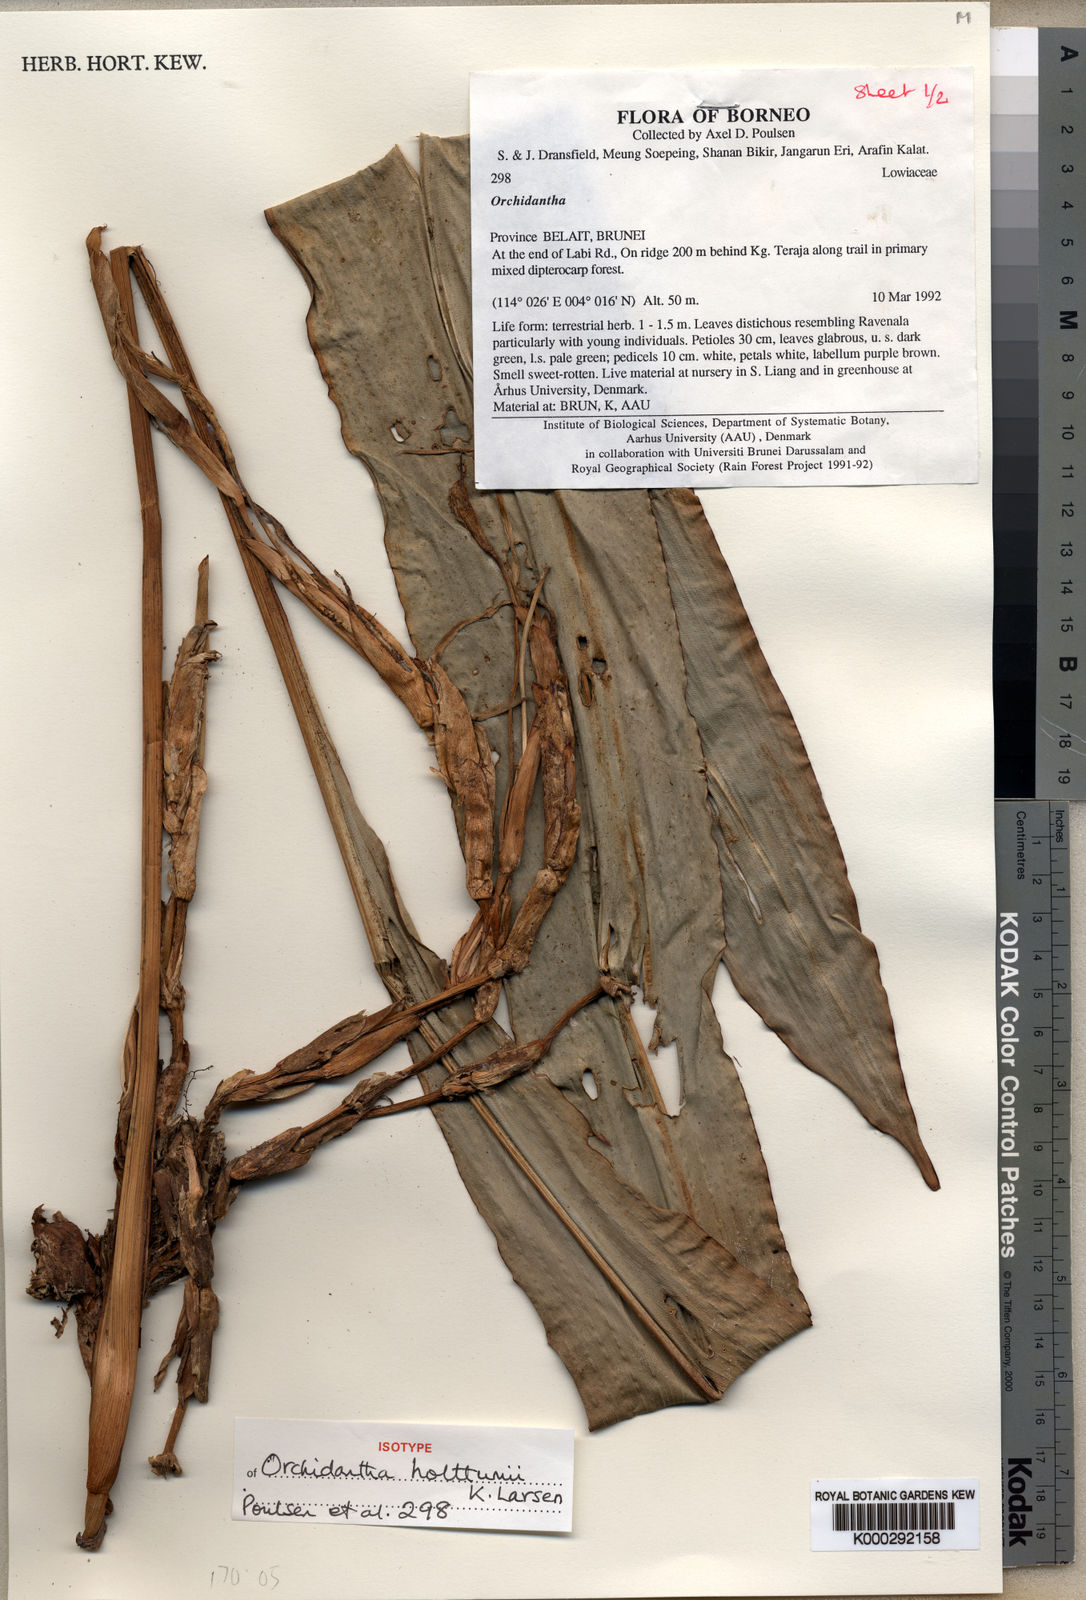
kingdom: Plantae
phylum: Tracheophyta
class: Liliopsida
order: Zingiberales
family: Lowiaceae
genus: Orchidantha
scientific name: Orchidantha holttumii
